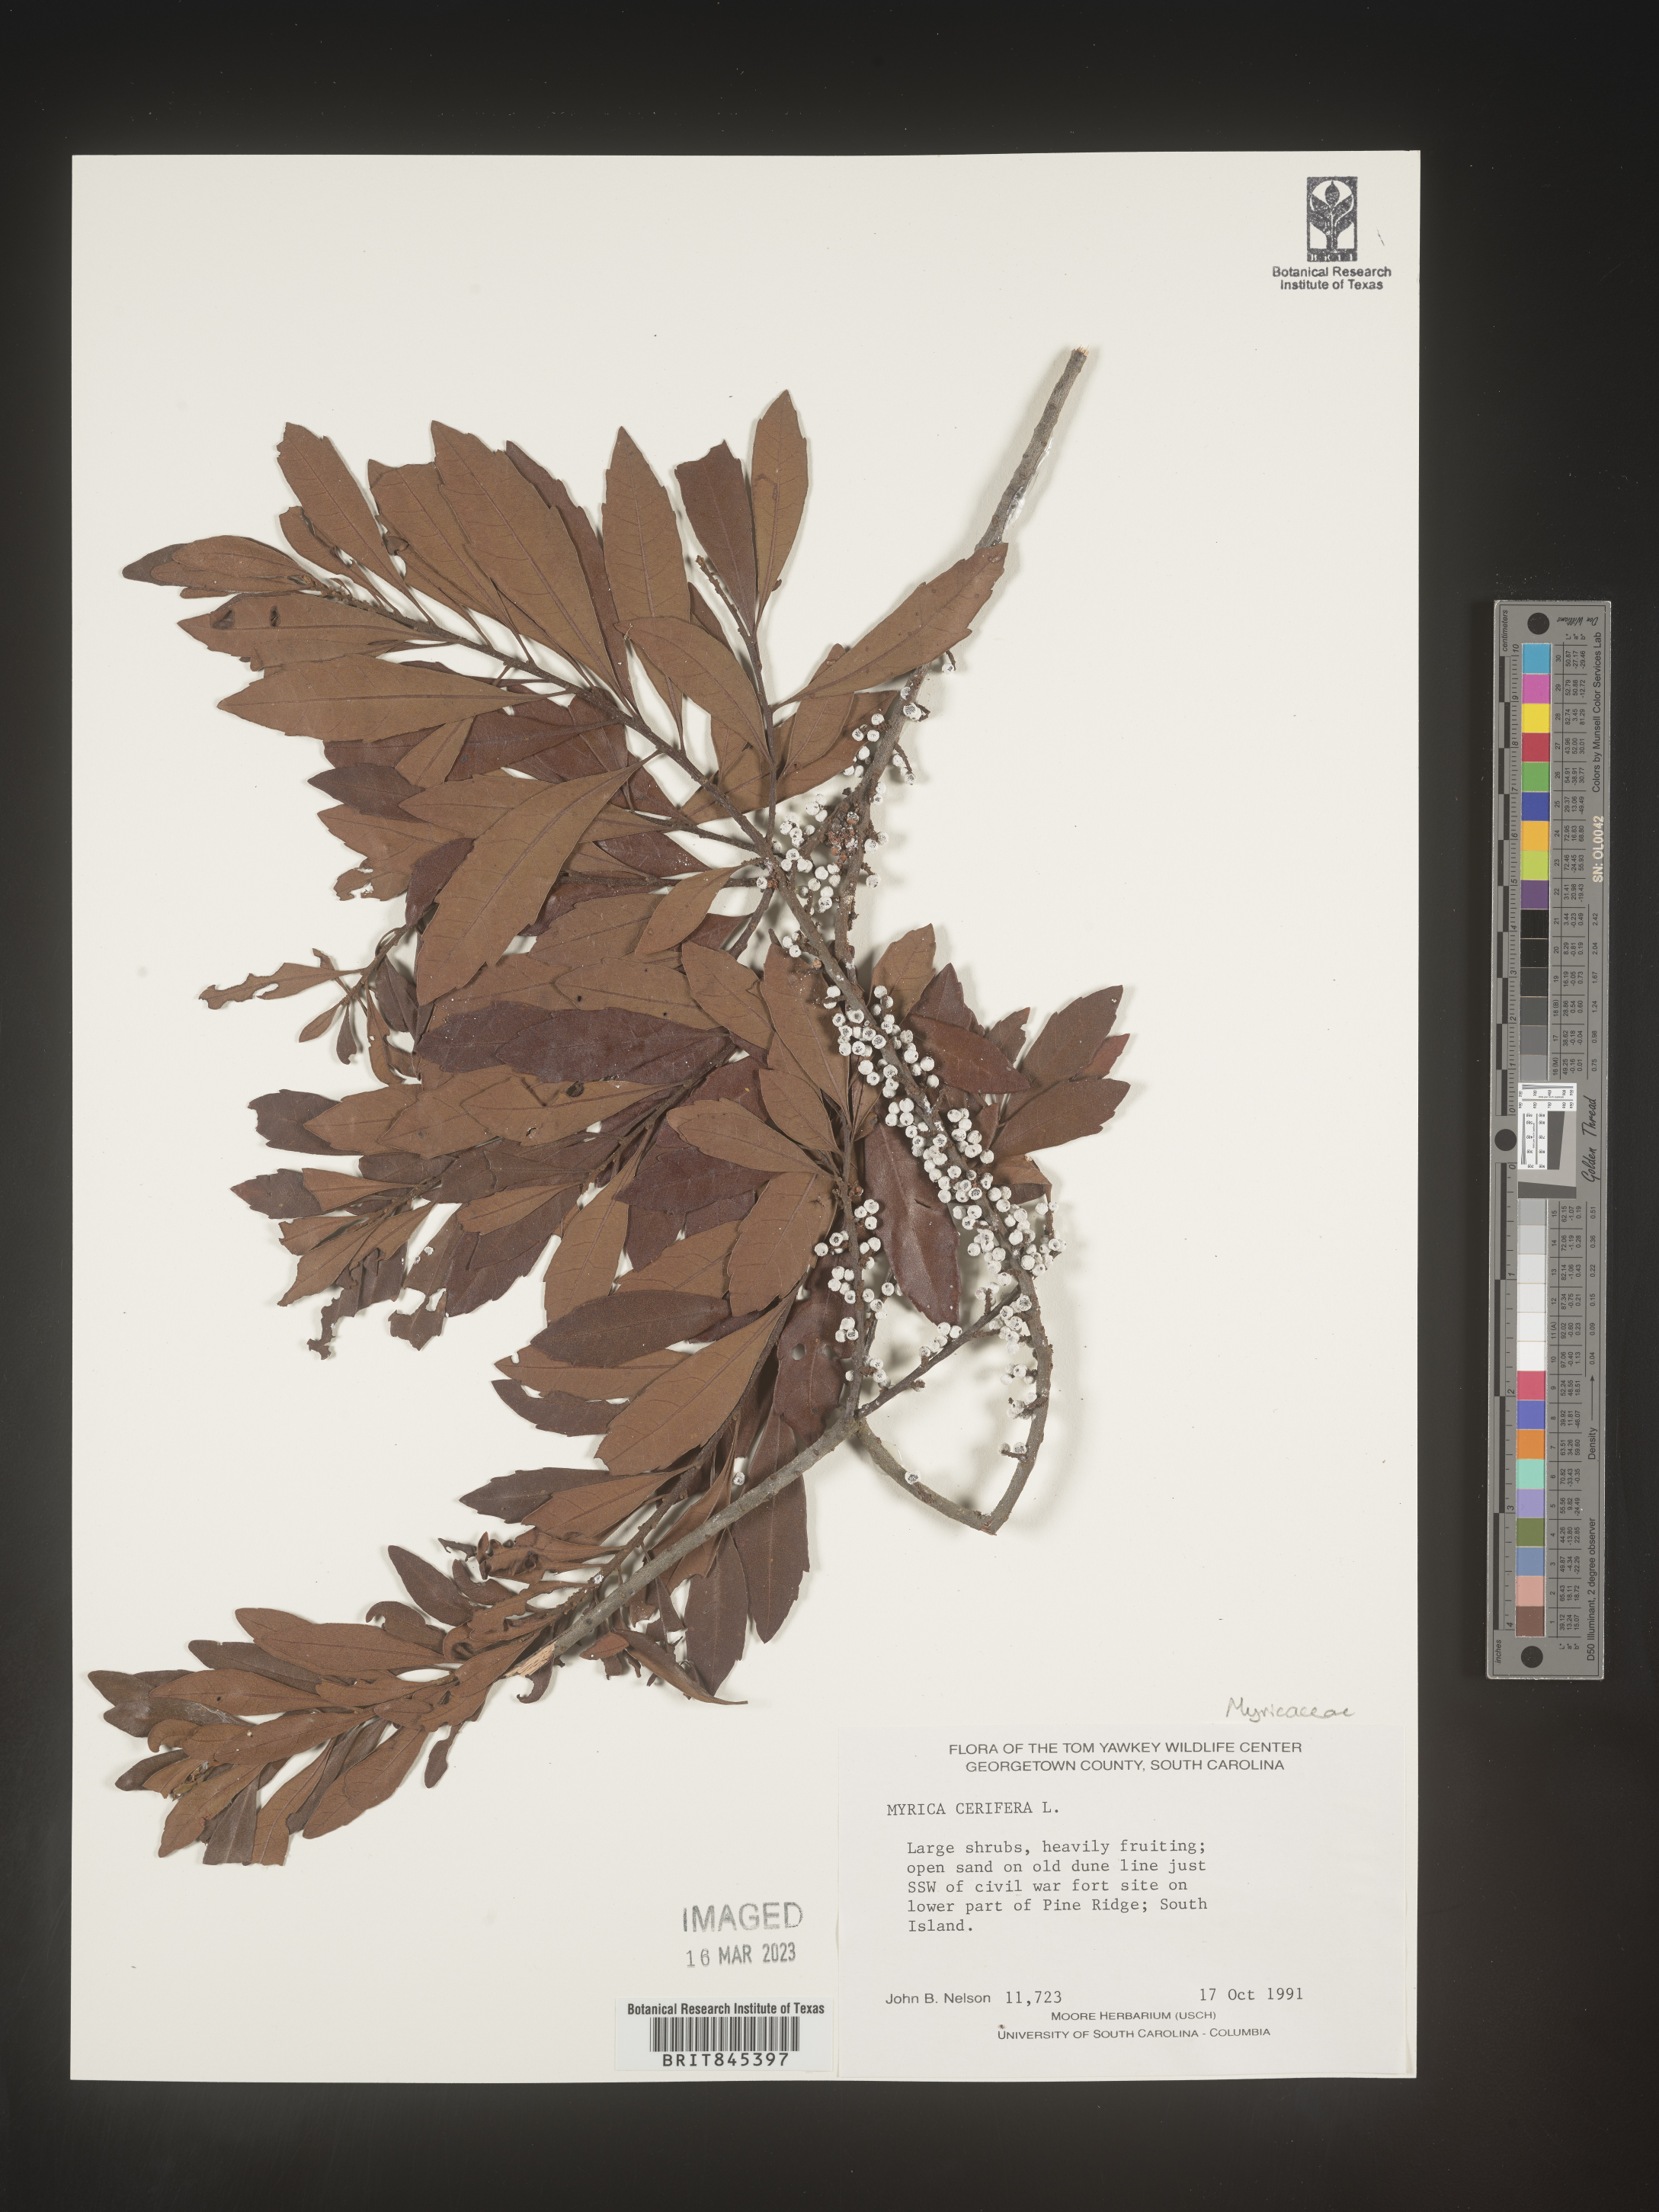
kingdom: Plantae
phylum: Tracheophyta
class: Magnoliopsida
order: Fagales
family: Myricaceae
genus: Morella
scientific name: Morella cerifera
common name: Wax myrtle
